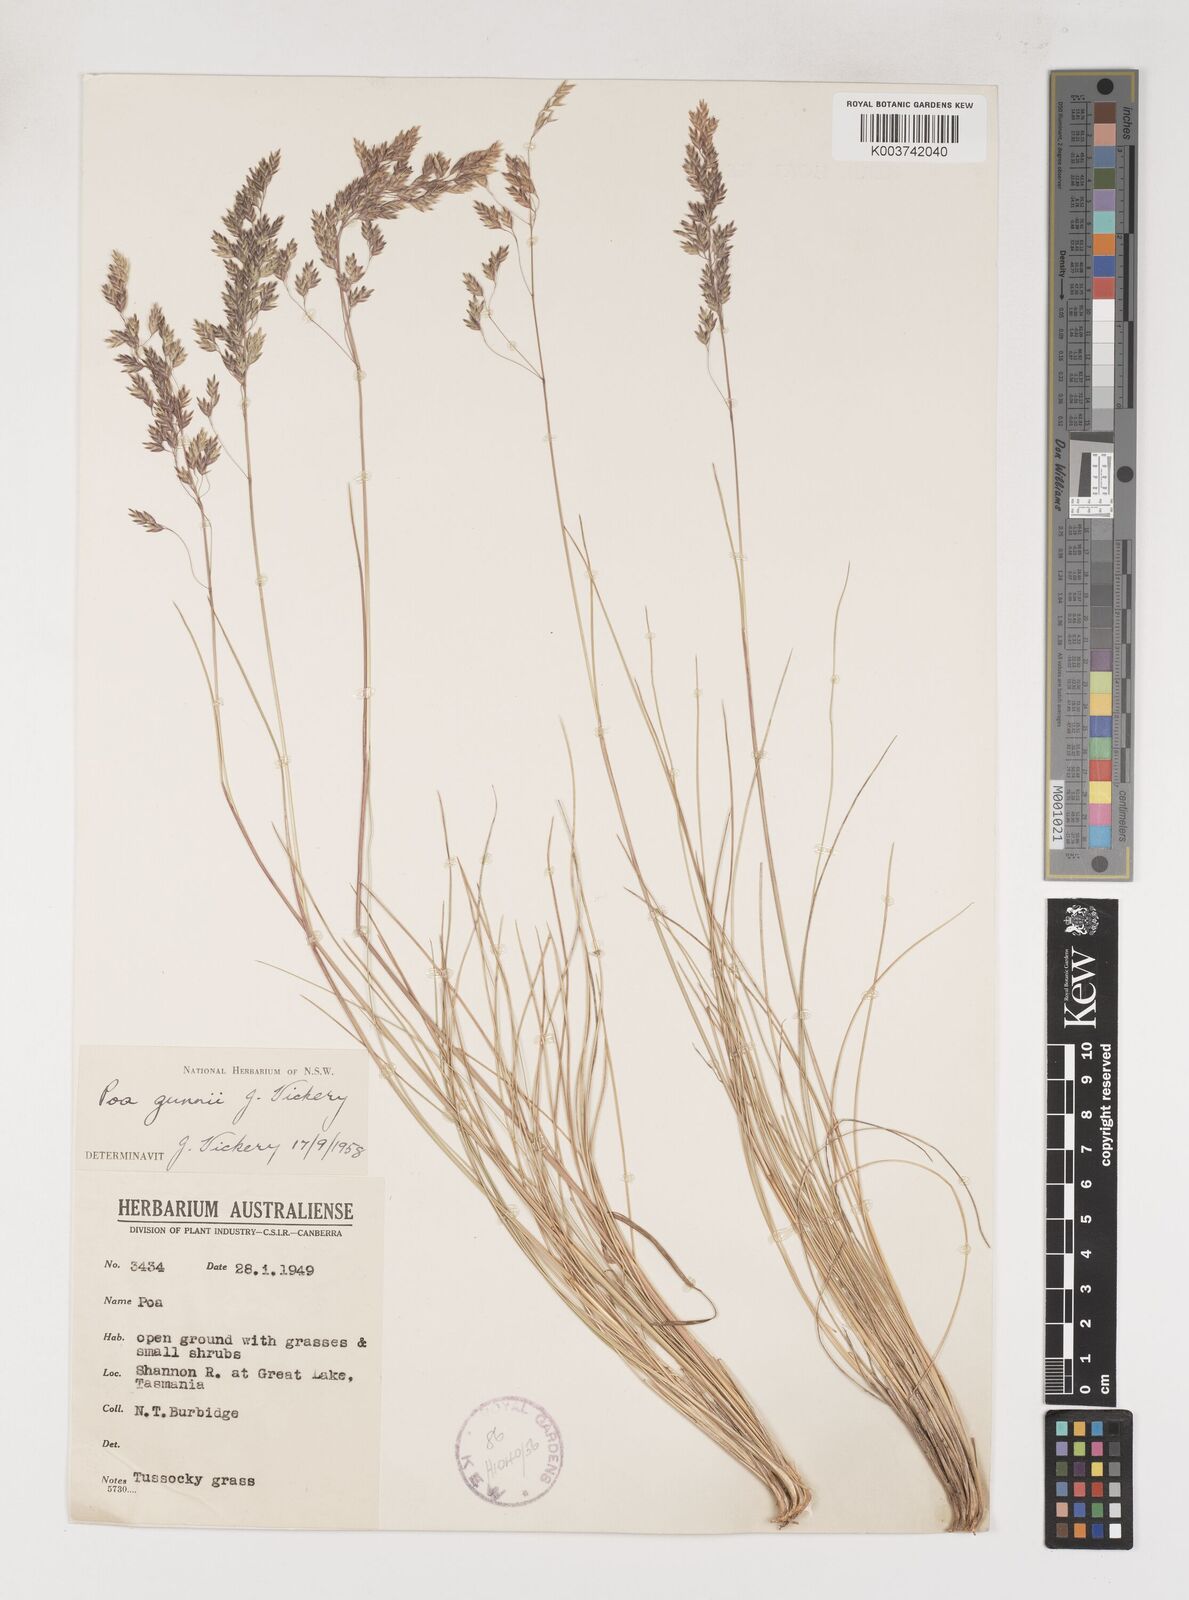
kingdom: Plantae
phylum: Tracheophyta
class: Liliopsida
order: Poales
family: Poaceae
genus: Poa
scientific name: Poa gunnii
